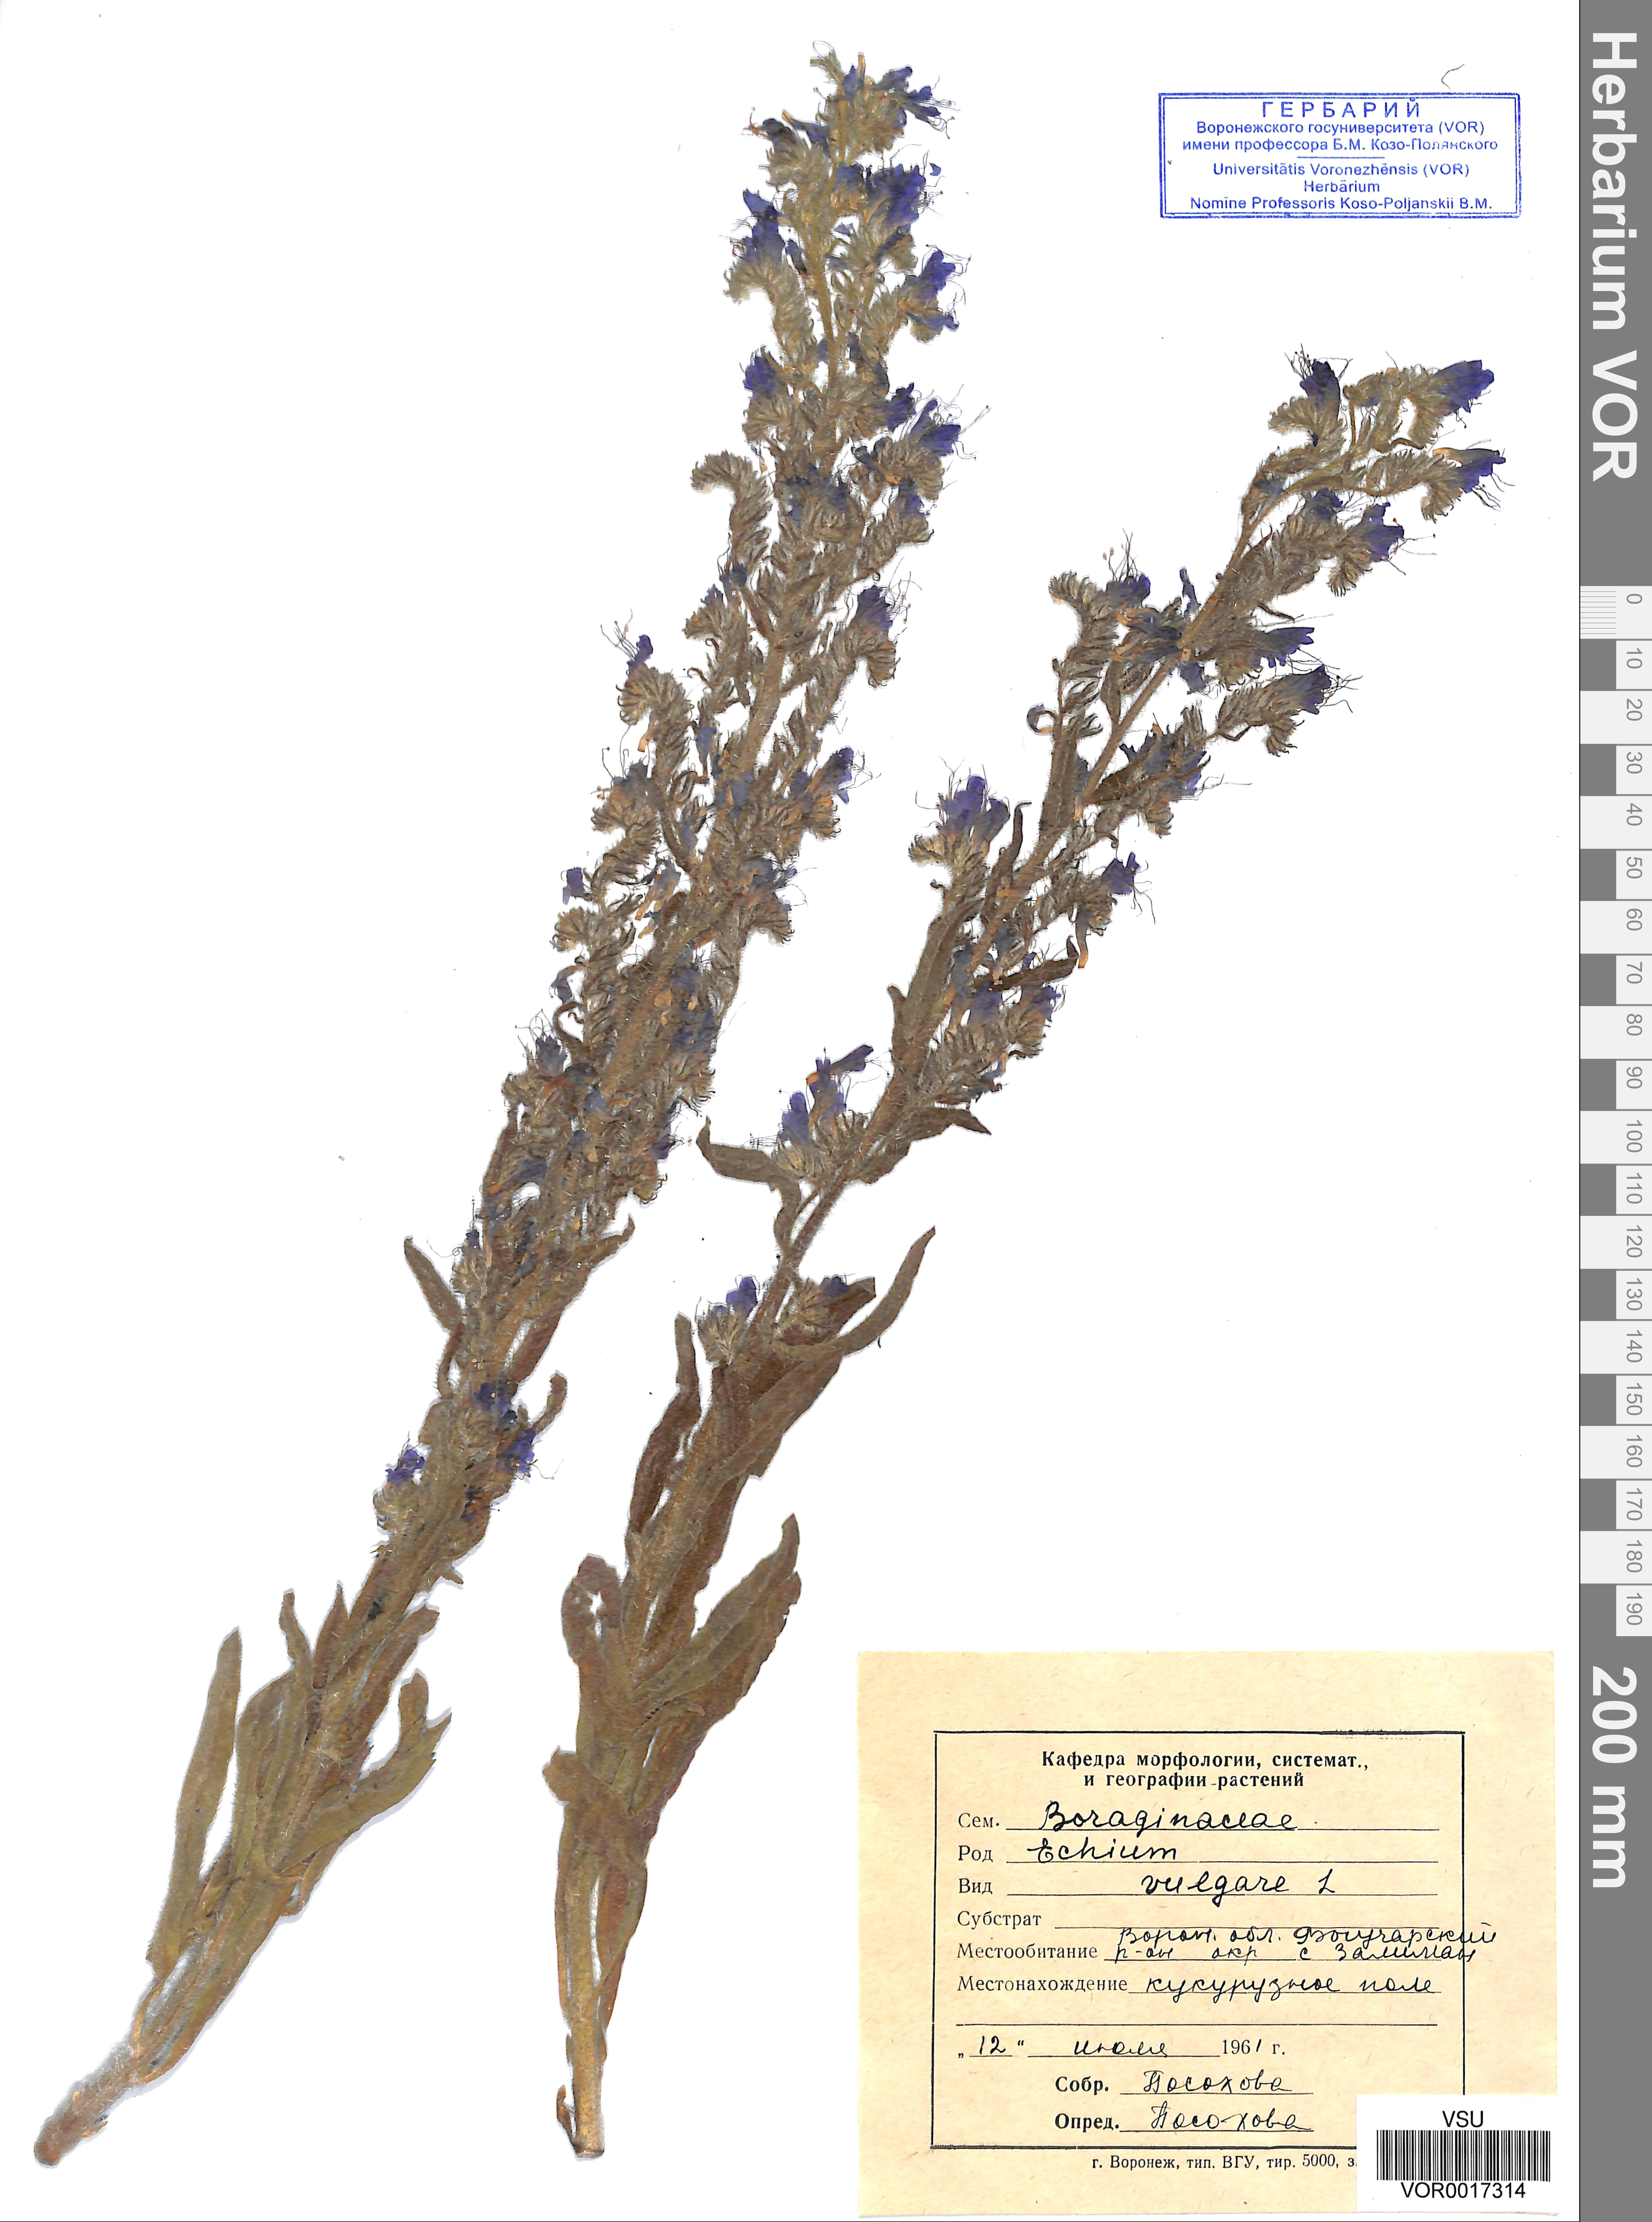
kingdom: Plantae
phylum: Tracheophyta
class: Magnoliopsida
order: Boraginales
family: Boraginaceae
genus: Echium
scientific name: Echium vulgare
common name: Common viper's bugloss
